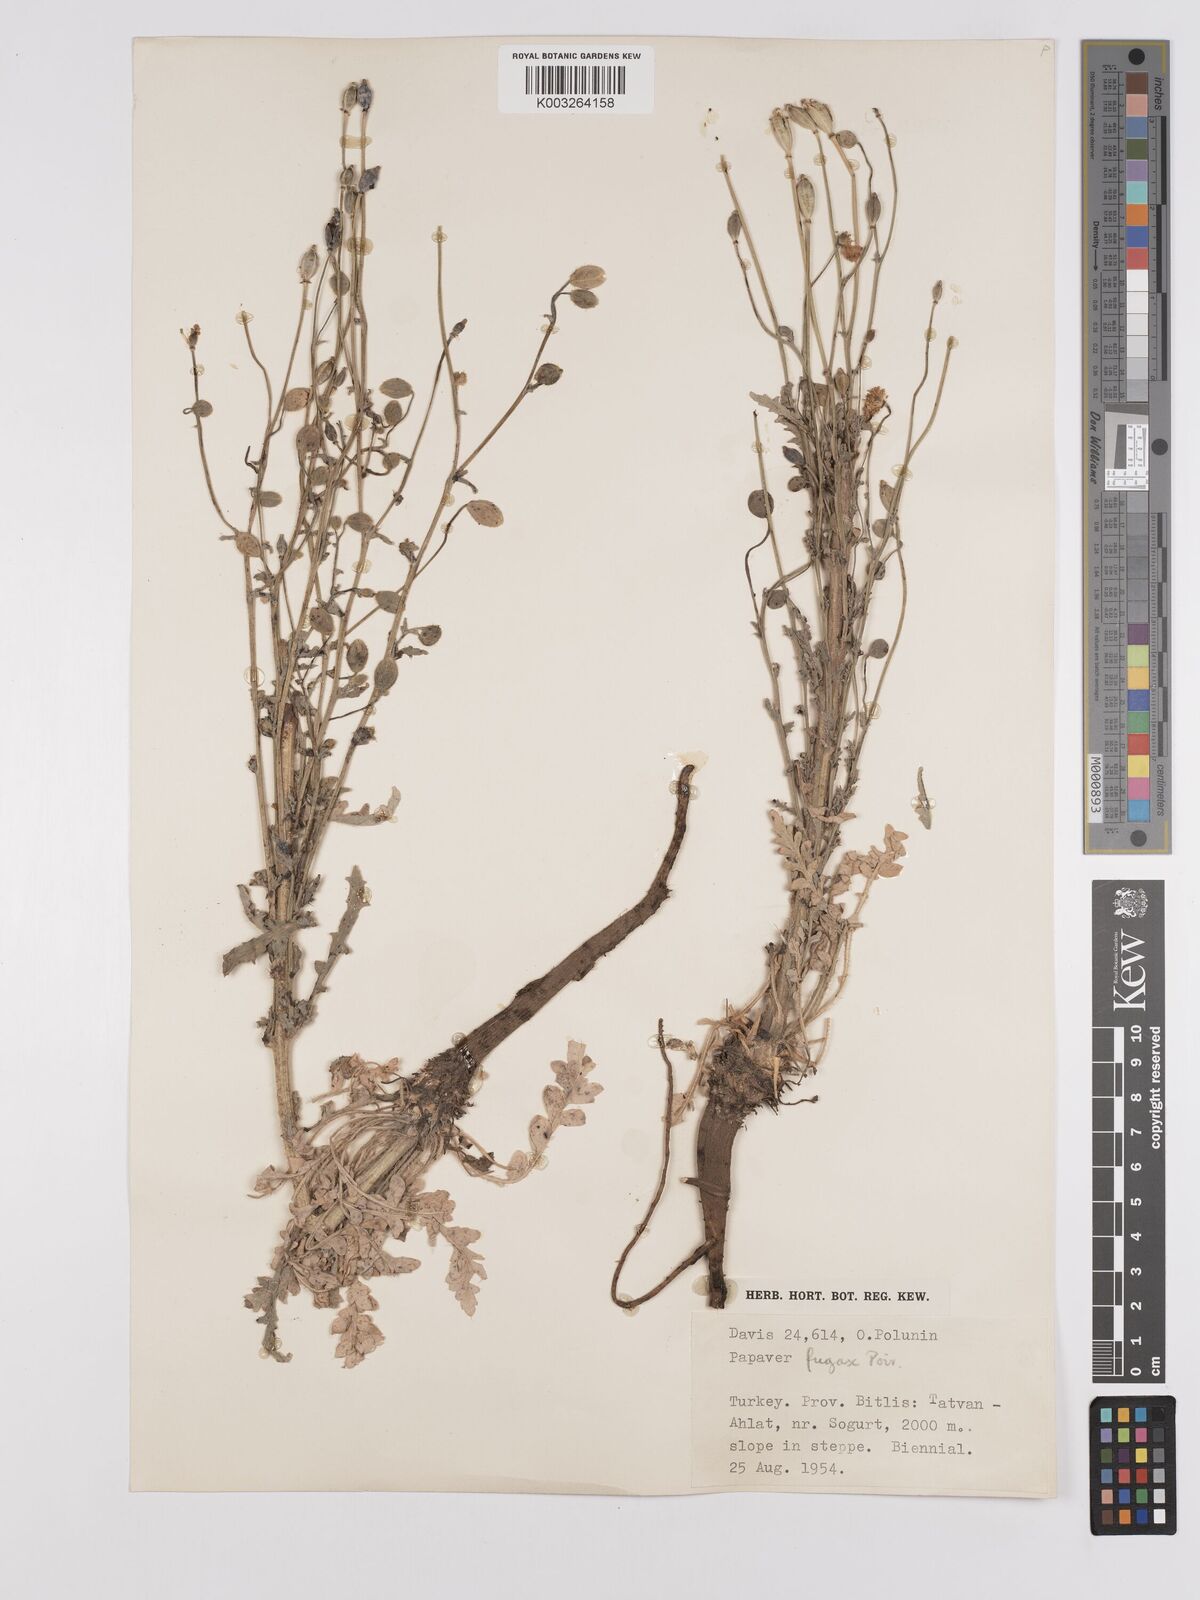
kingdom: Plantae
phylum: Tracheophyta
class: Magnoliopsida
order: Ranunculales
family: Papaveraceae
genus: Papaver
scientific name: Papaver armeniacum
